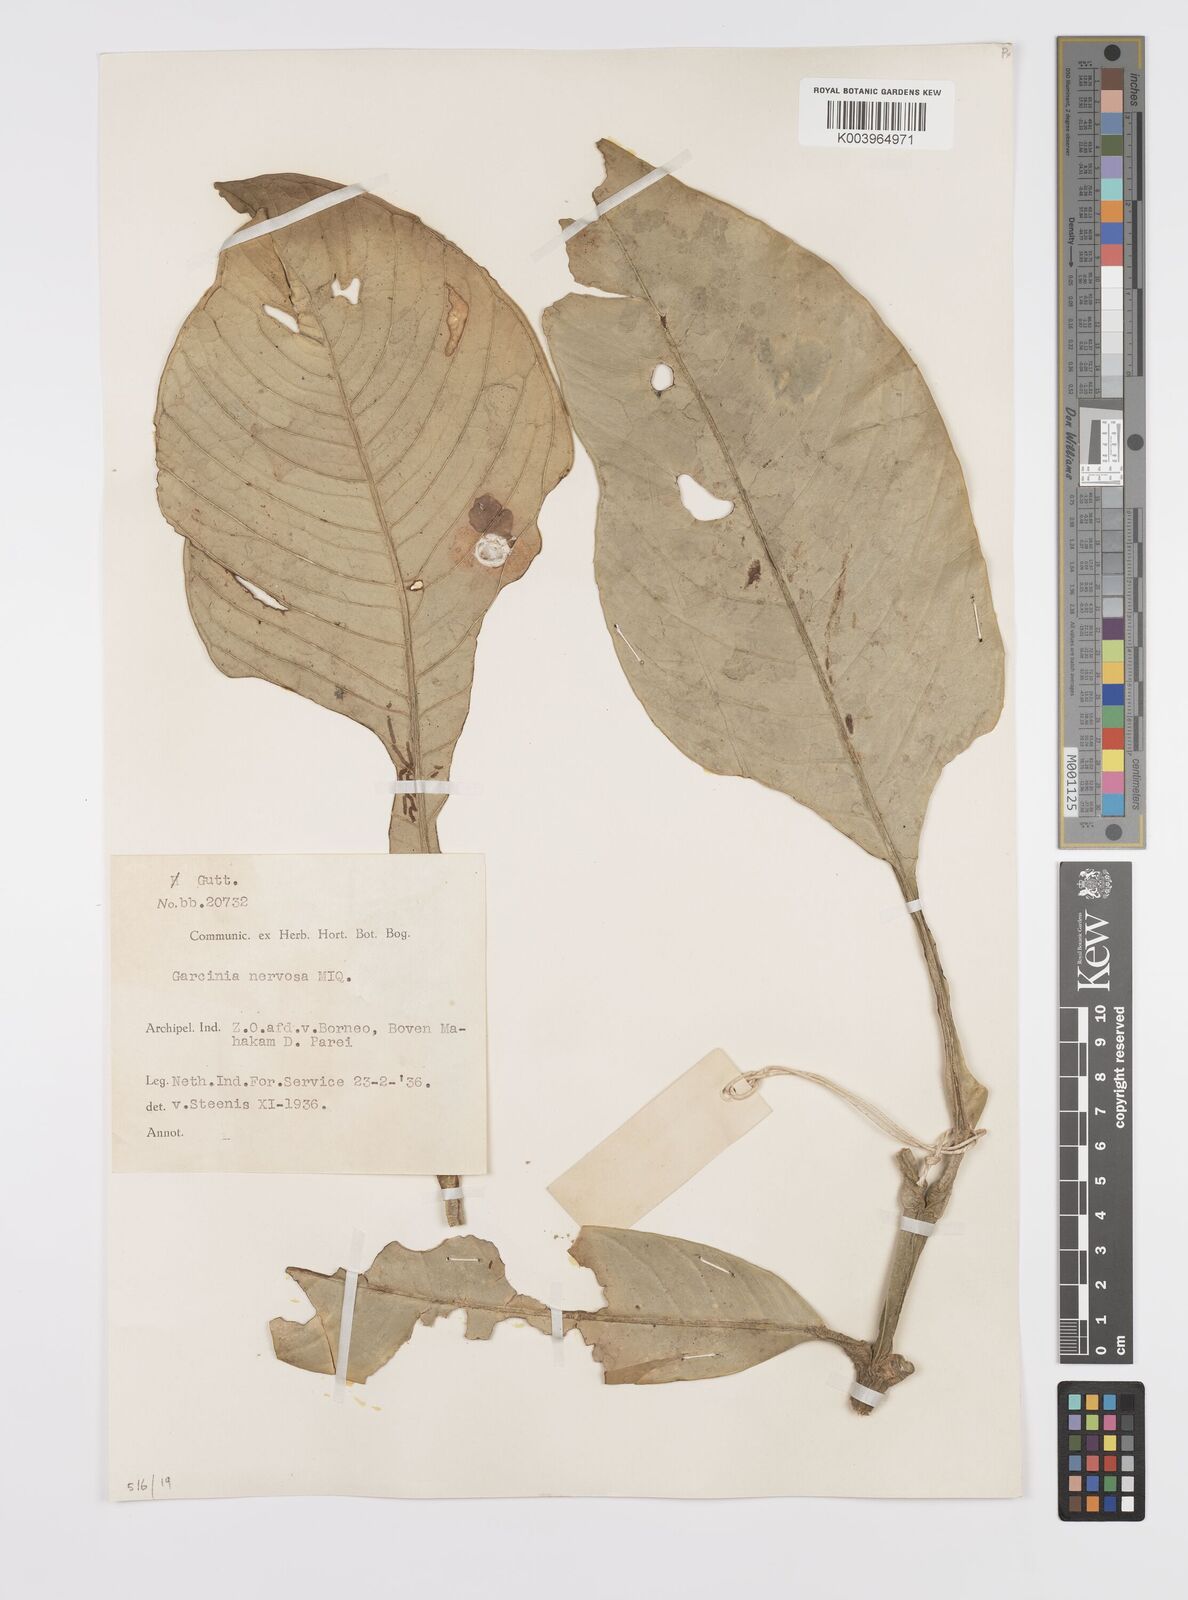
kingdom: Plantae
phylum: Tracheophyta
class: Magnoliopsida
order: Malpighiales
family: Clusiaceae
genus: Garcinia
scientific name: Garcinia nervosa
